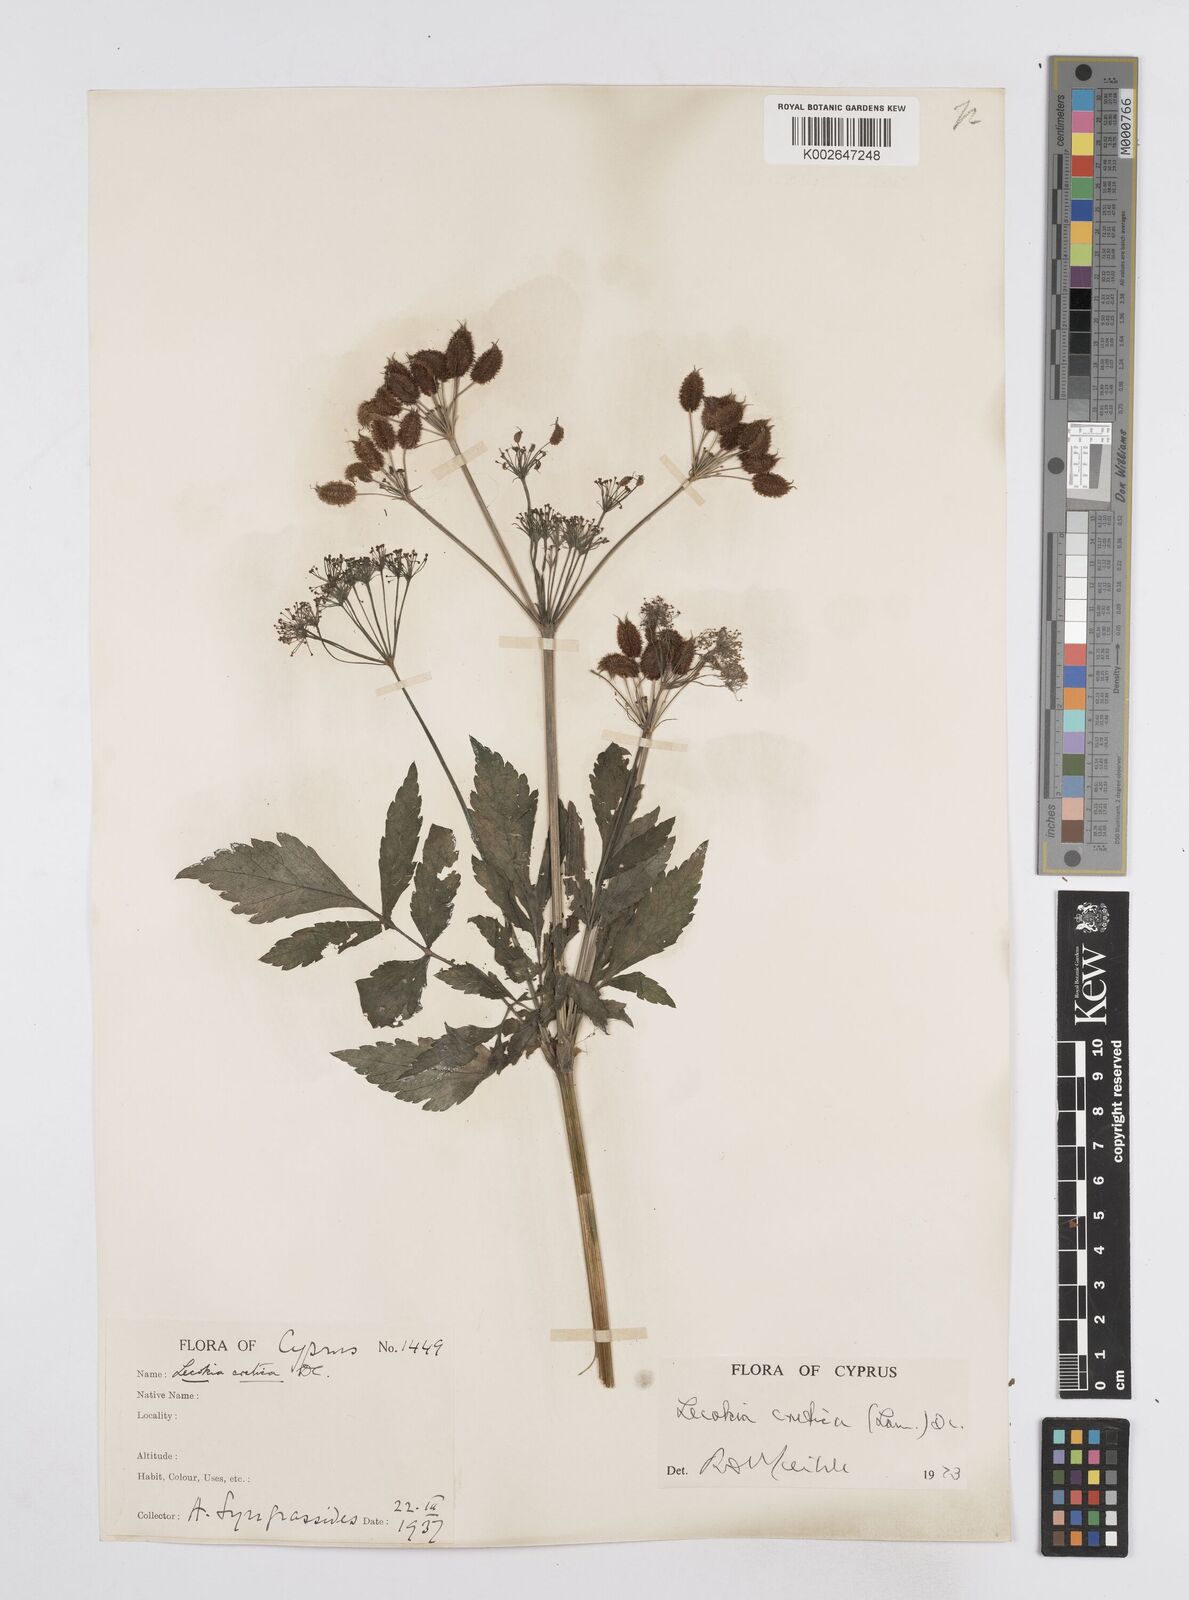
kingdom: Plantae
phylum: Tracheophyta
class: Magnoliopsida
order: Apiales
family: Apiaceae
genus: Lecokia
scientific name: Lecokia cretica
